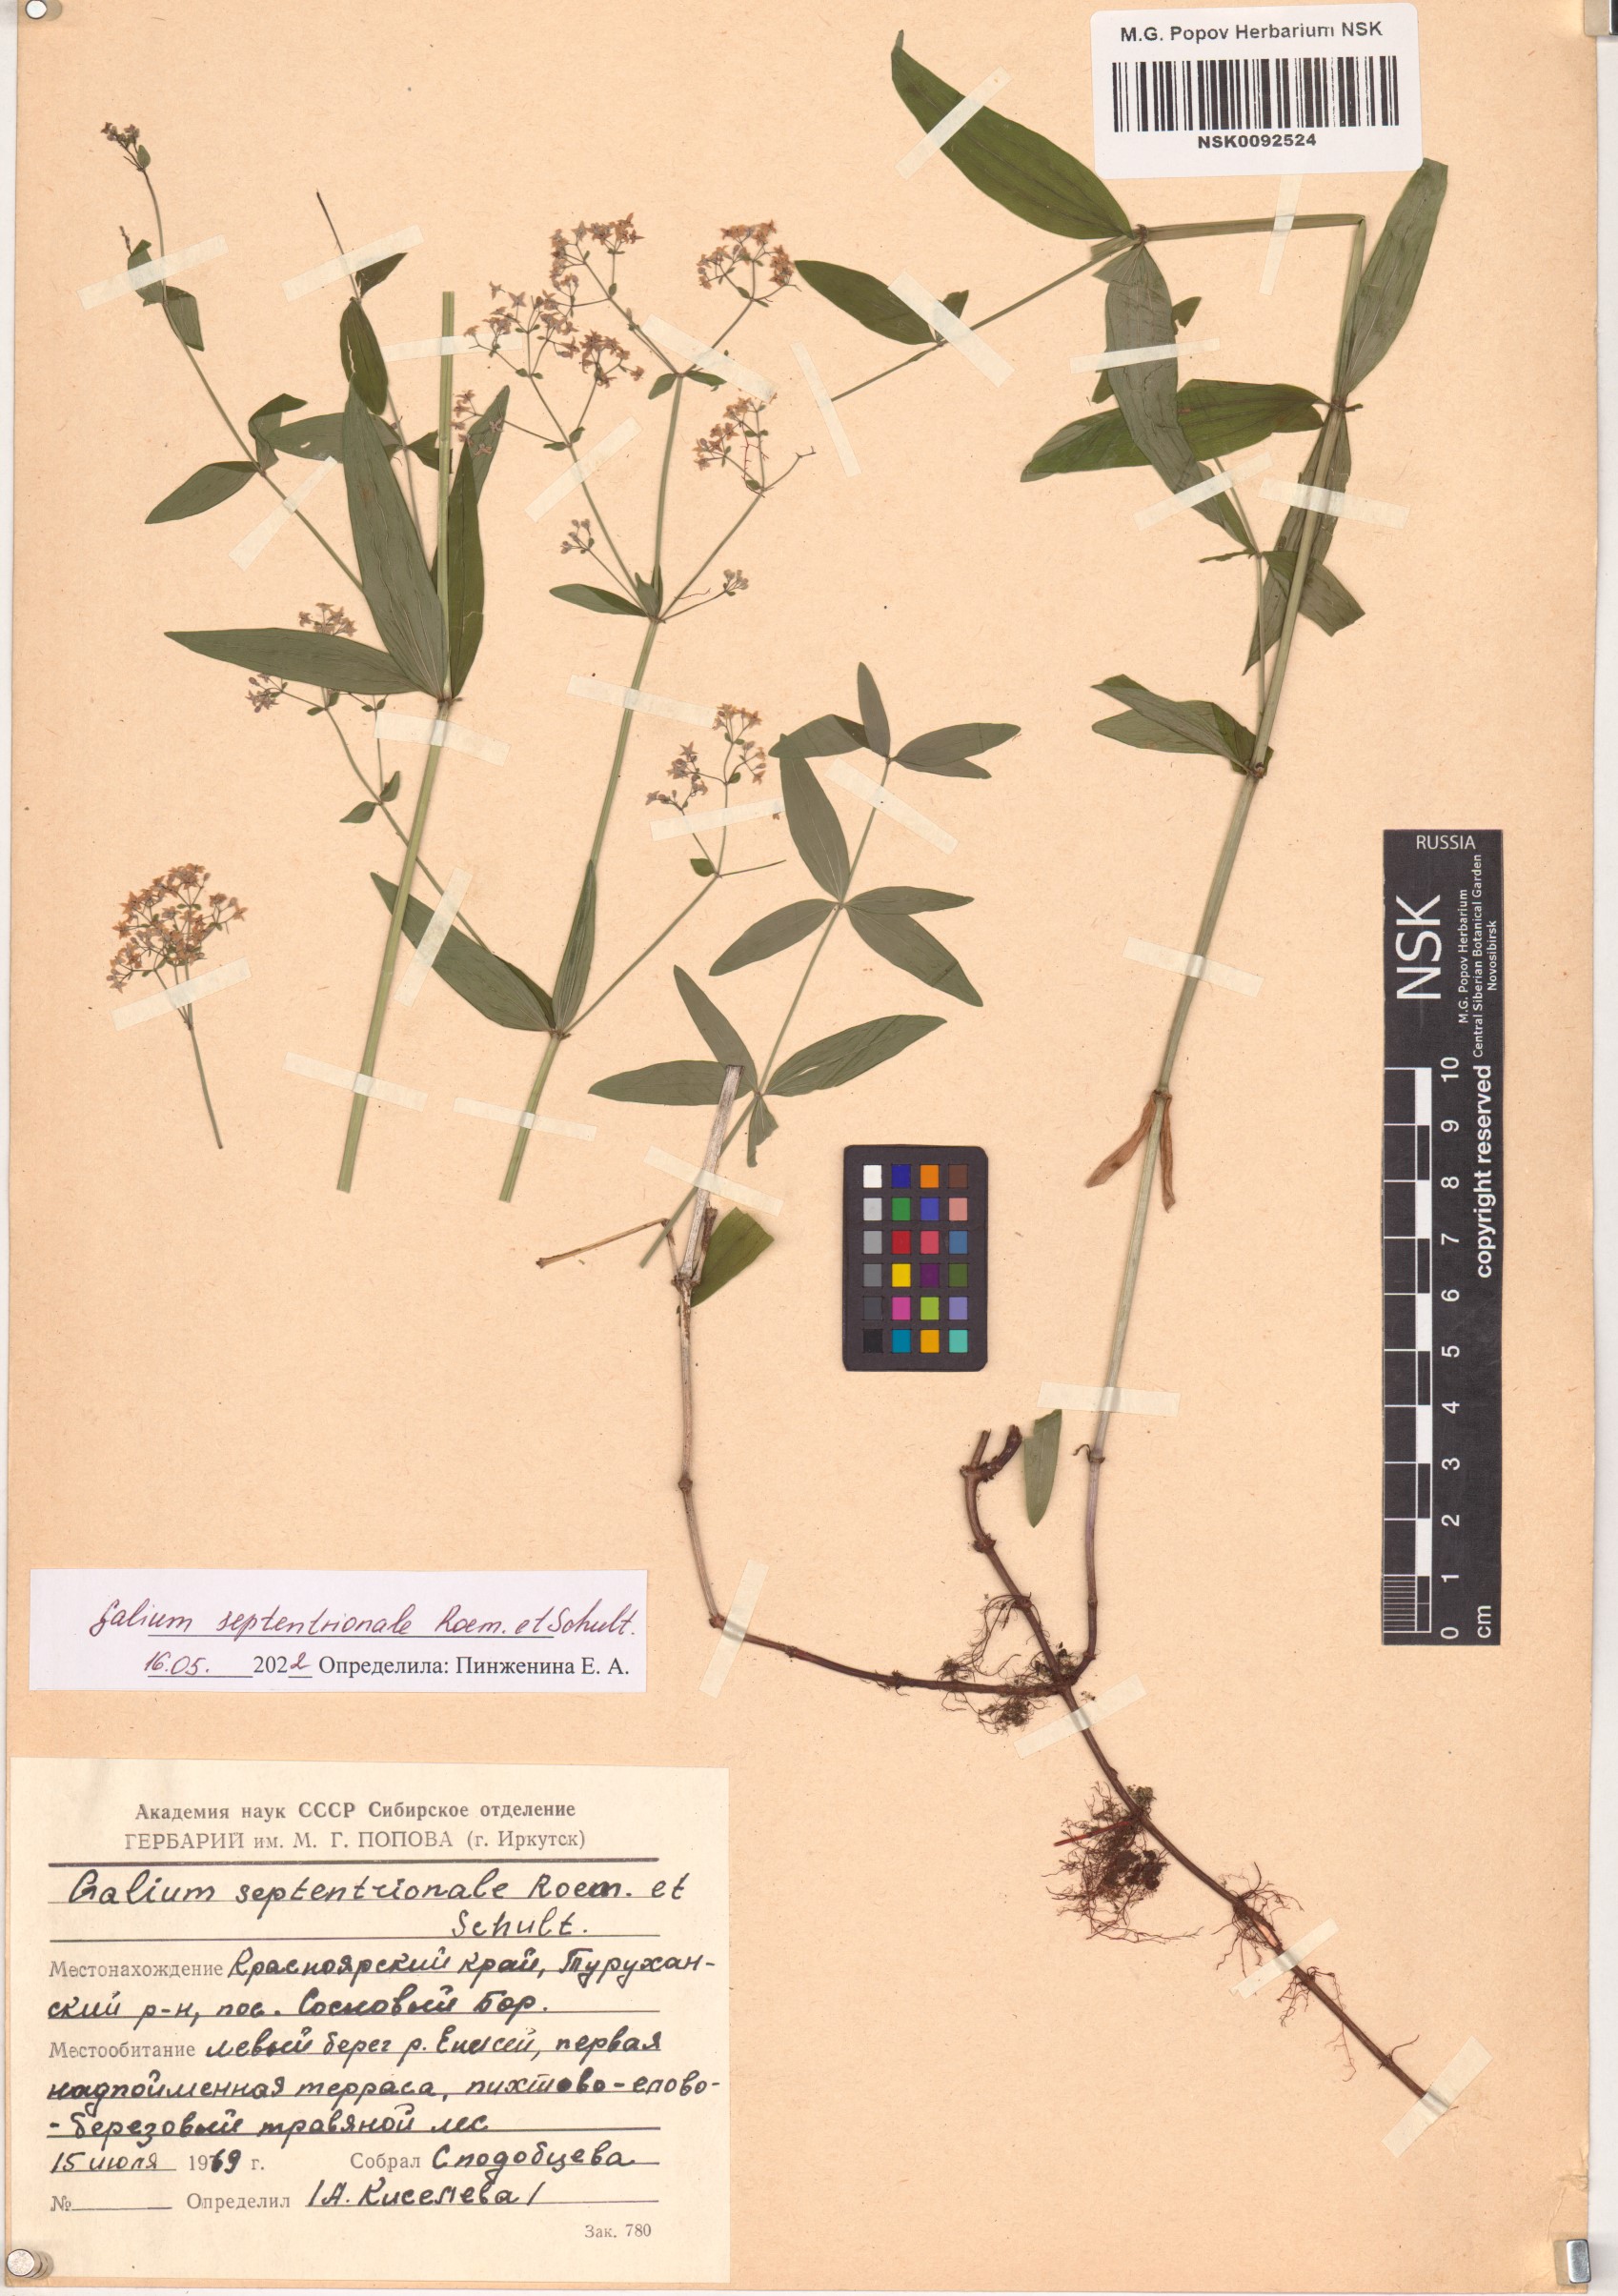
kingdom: Plantae
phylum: Tracheophyta
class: Magnoliopsida
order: Gentianales
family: Rubiaceae
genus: Galium
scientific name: Galium boreale
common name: Northern bedstraw
